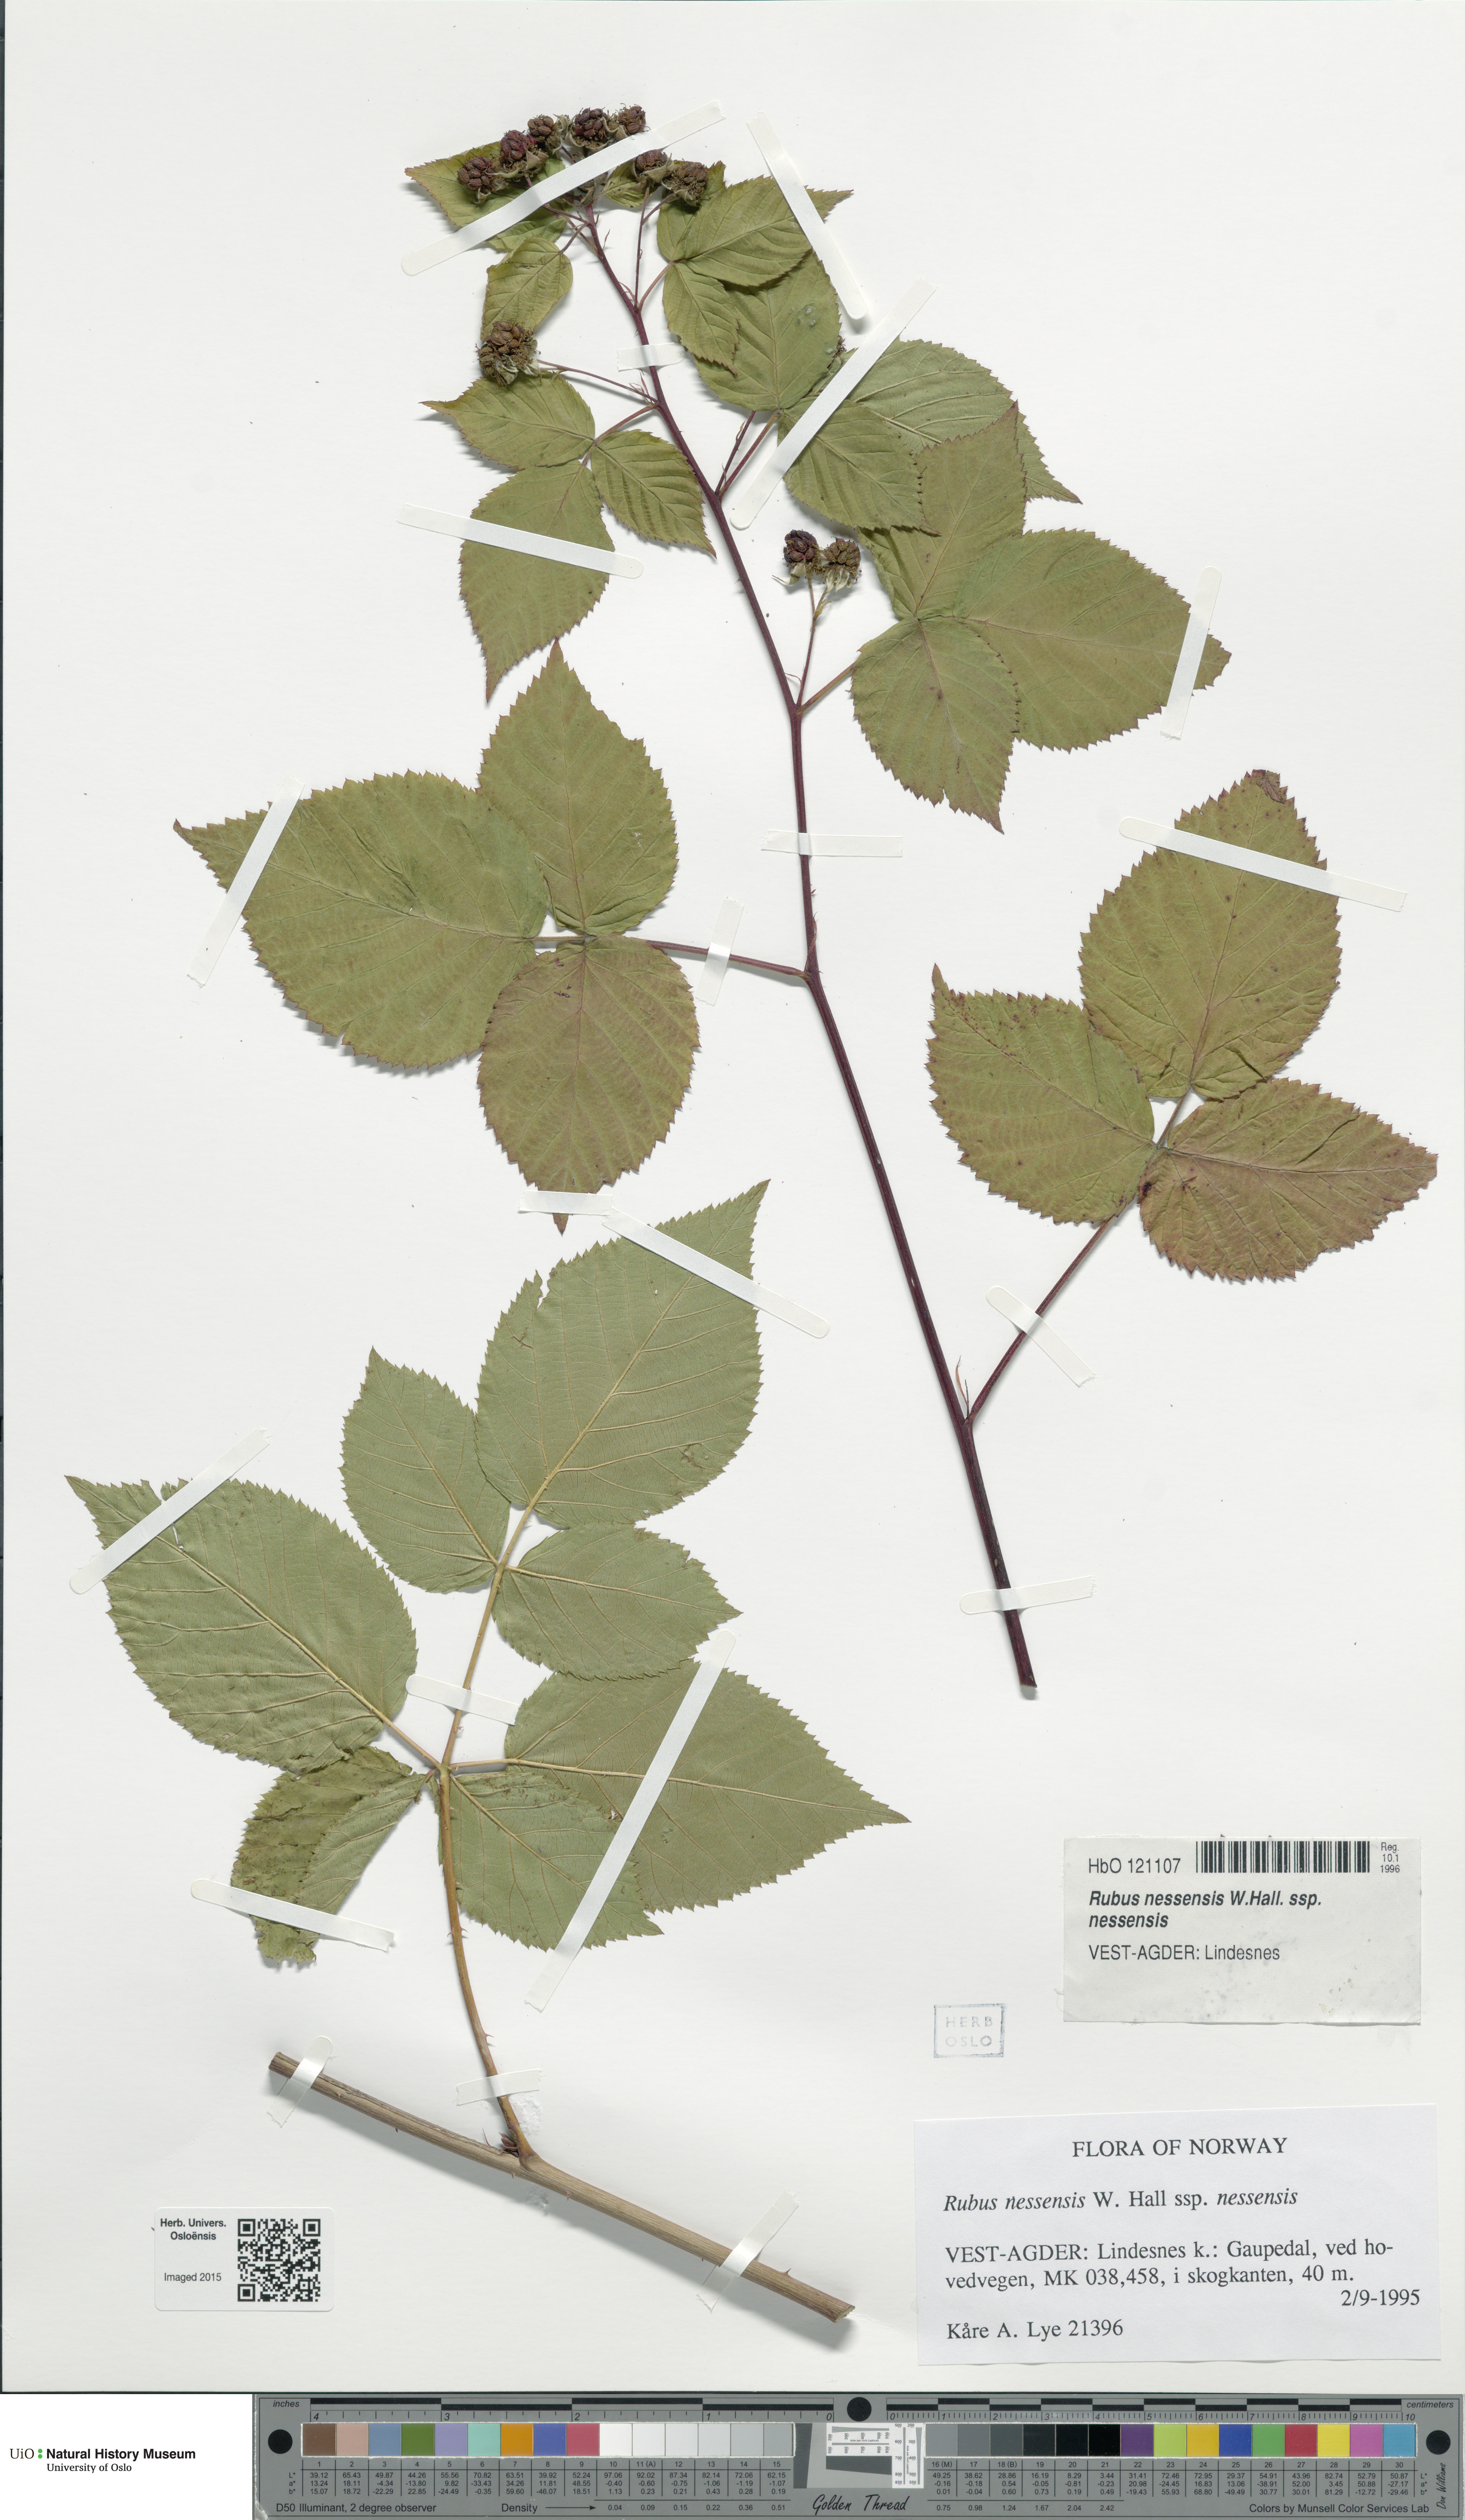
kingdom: Plantae
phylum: Tracheophyta
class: Magnoliopsida
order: Rosales
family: Rosaceae
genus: Rubus
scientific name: Rubus polonicus
